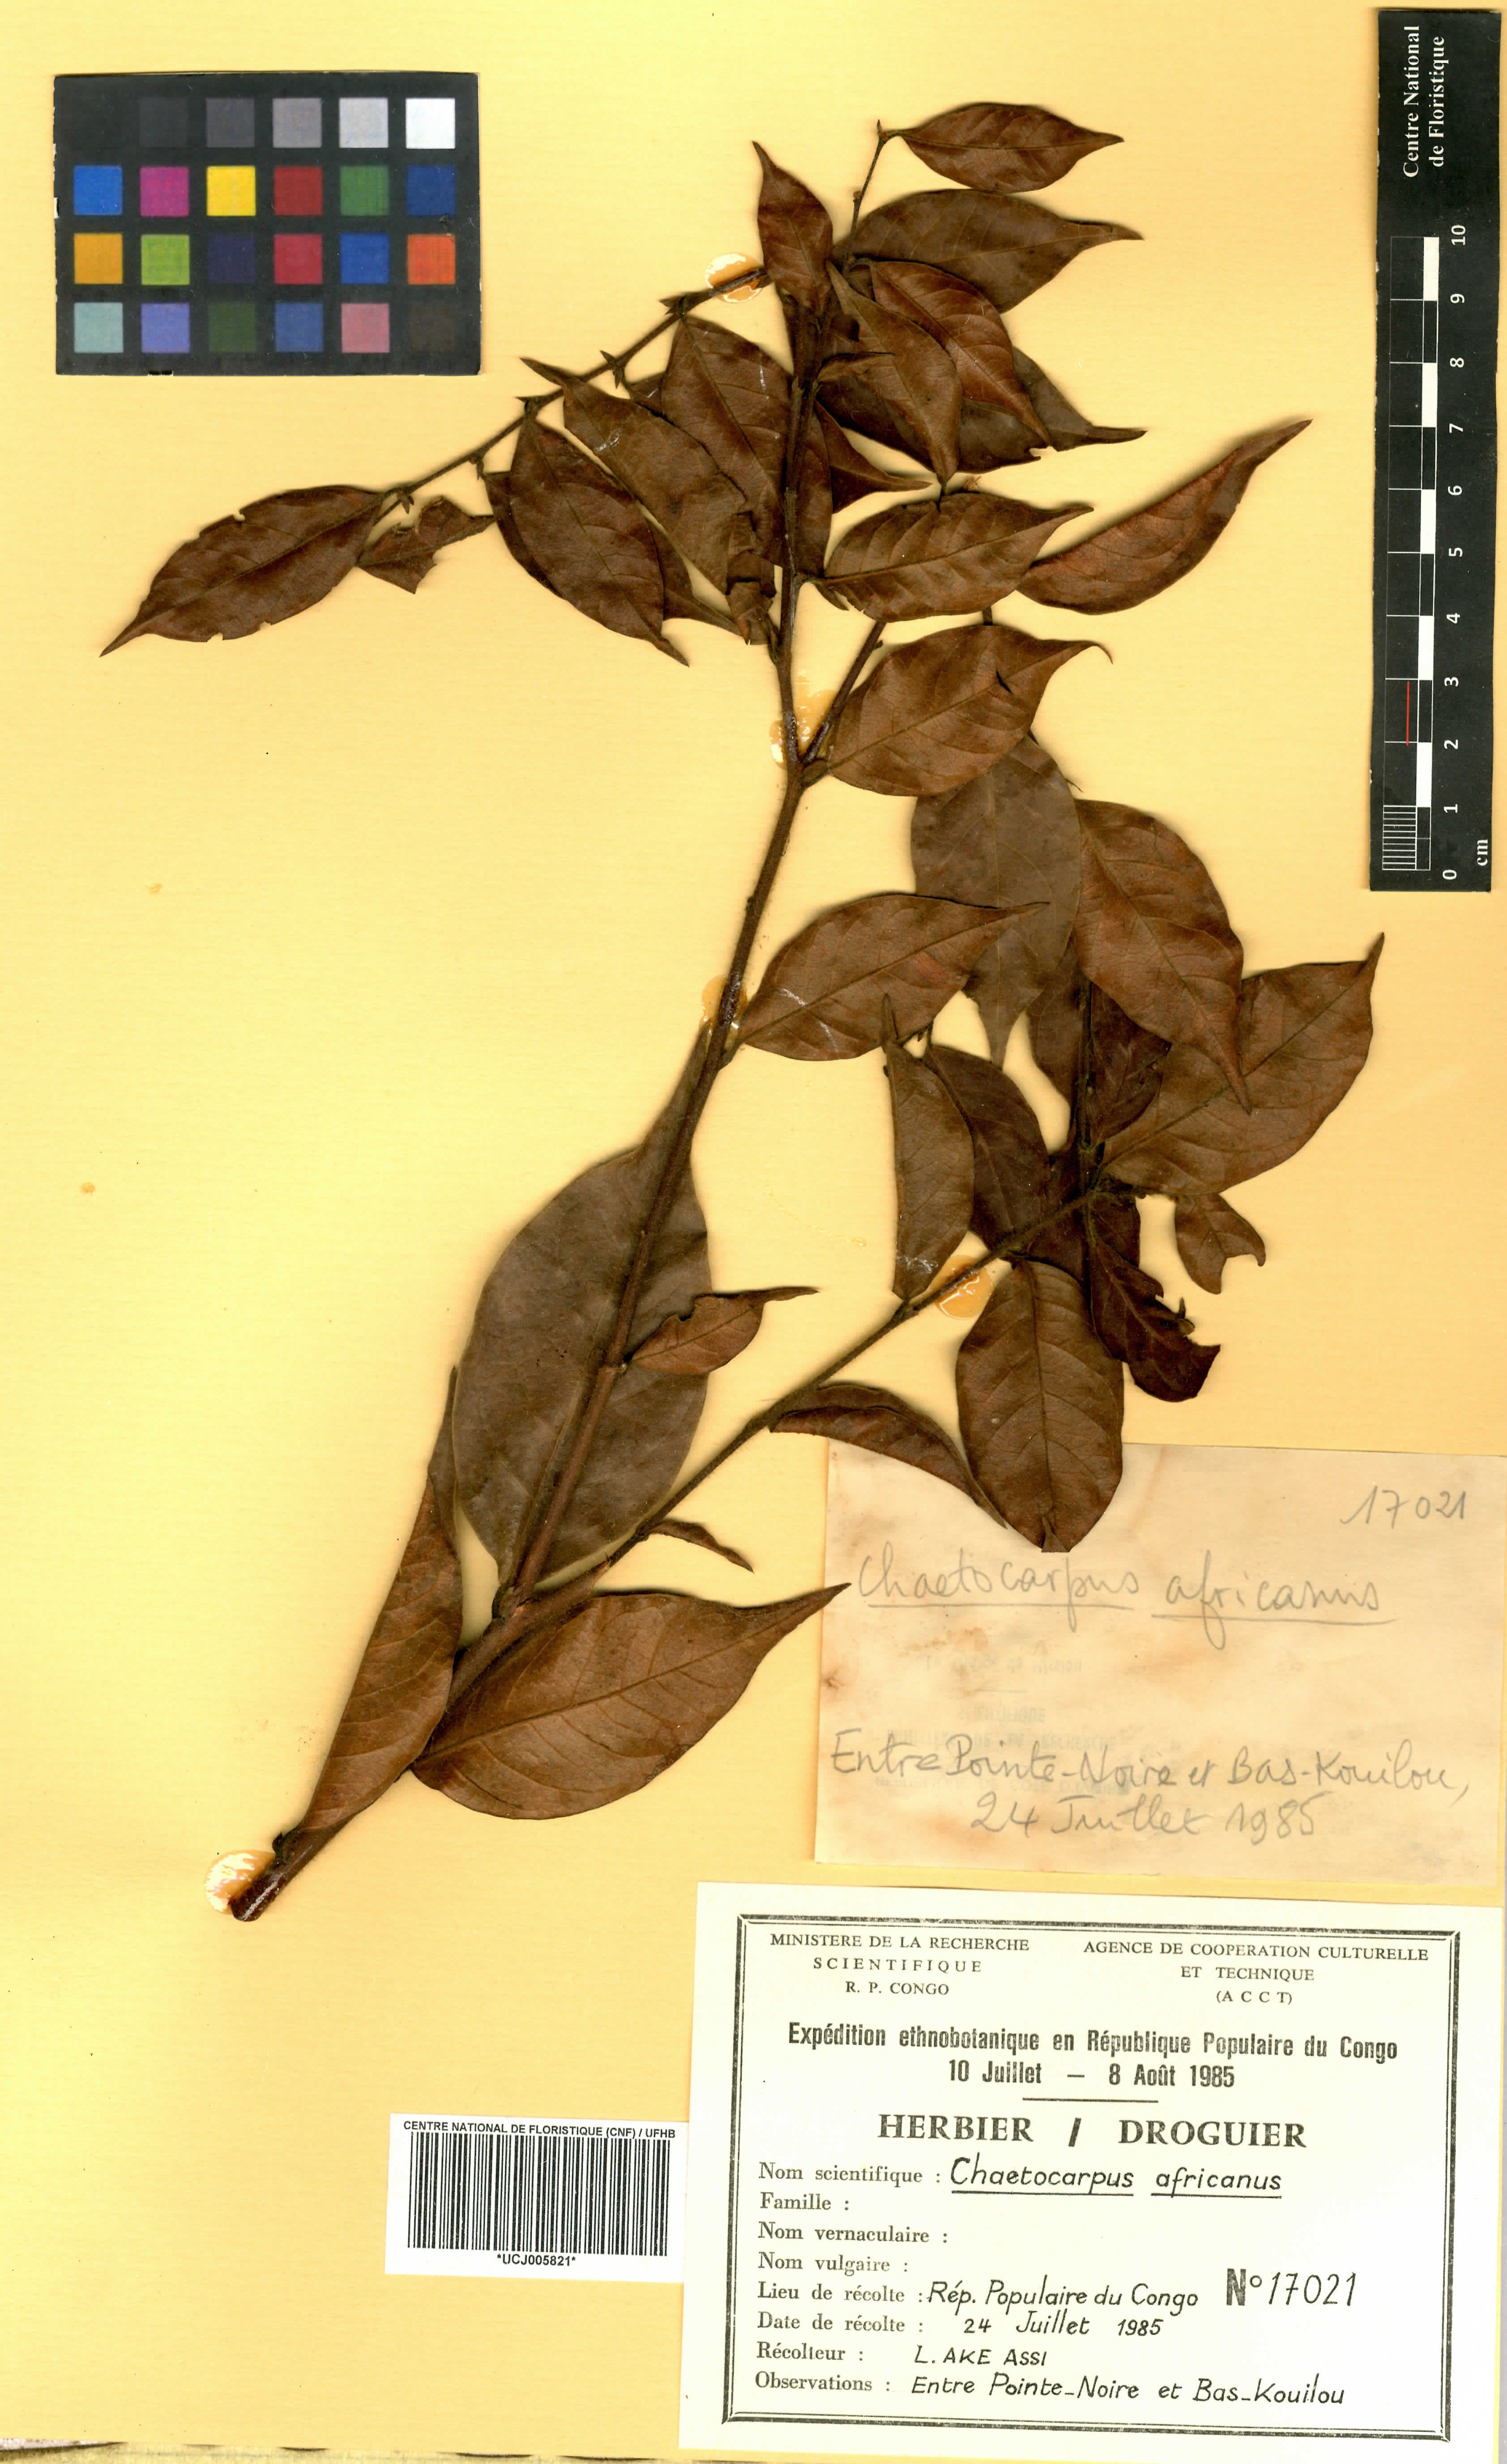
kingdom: Plantae
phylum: Tracheophyta
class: Magnoliopsida
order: Malpighiales
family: Peraceae
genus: Chaetocarpus
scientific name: Chaetocarpus africanus
